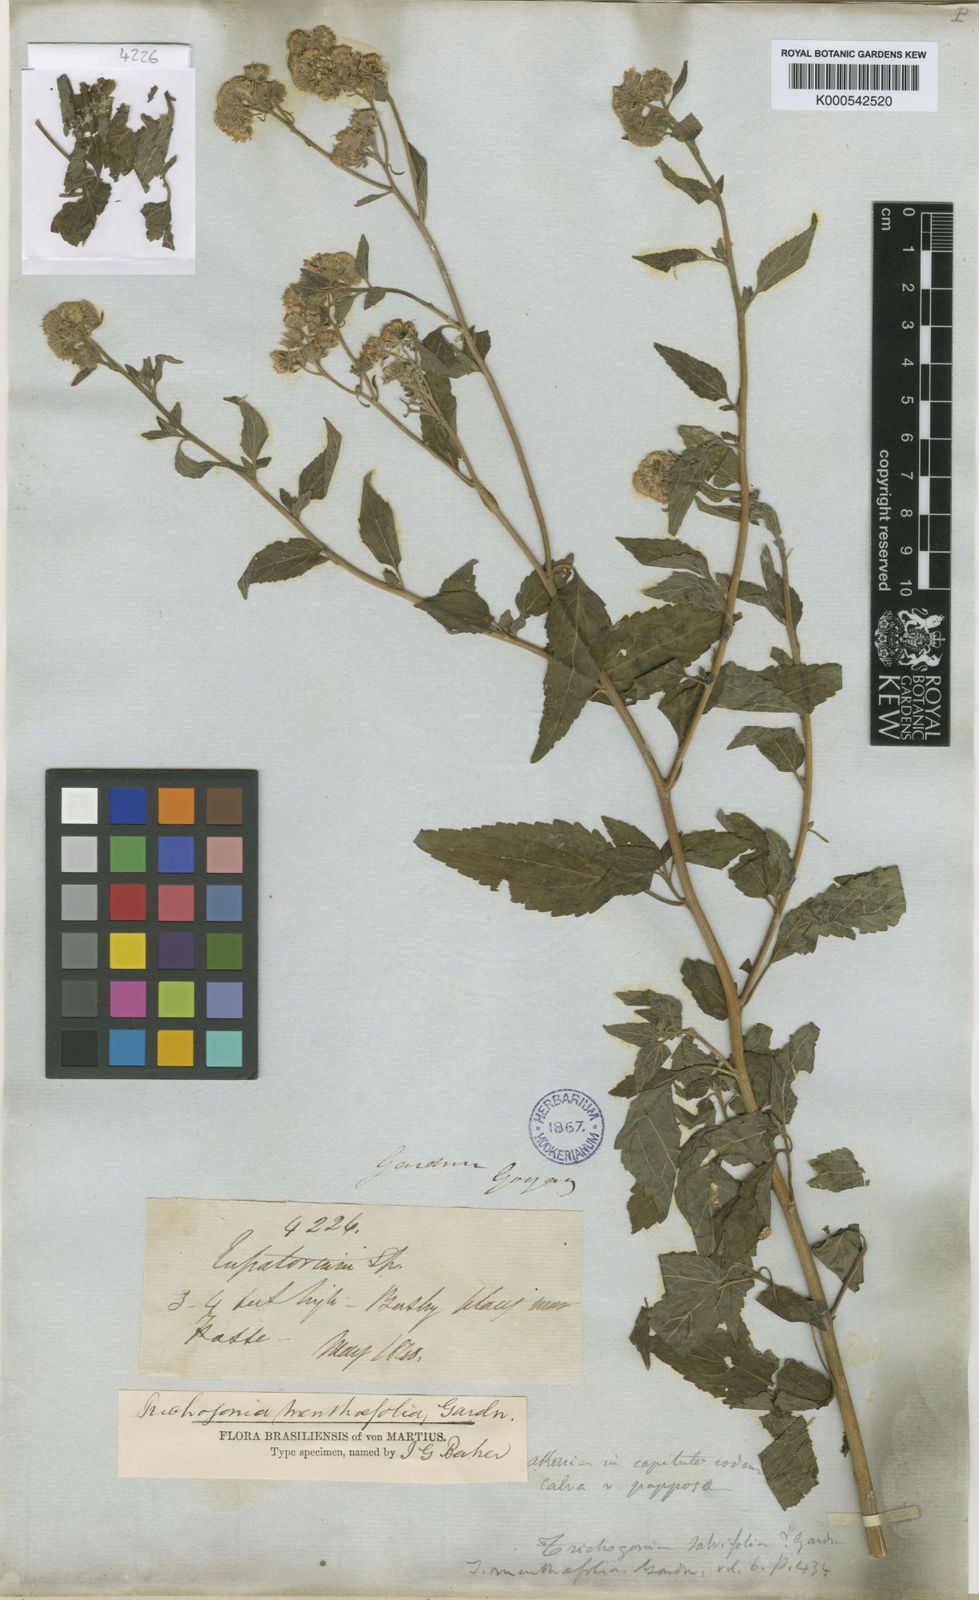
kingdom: Plantae
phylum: Tracheophyta
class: Magnoliopsida
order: Asterales
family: Asteraceae
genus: Trichogonia
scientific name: Trichogonia menthifolia
